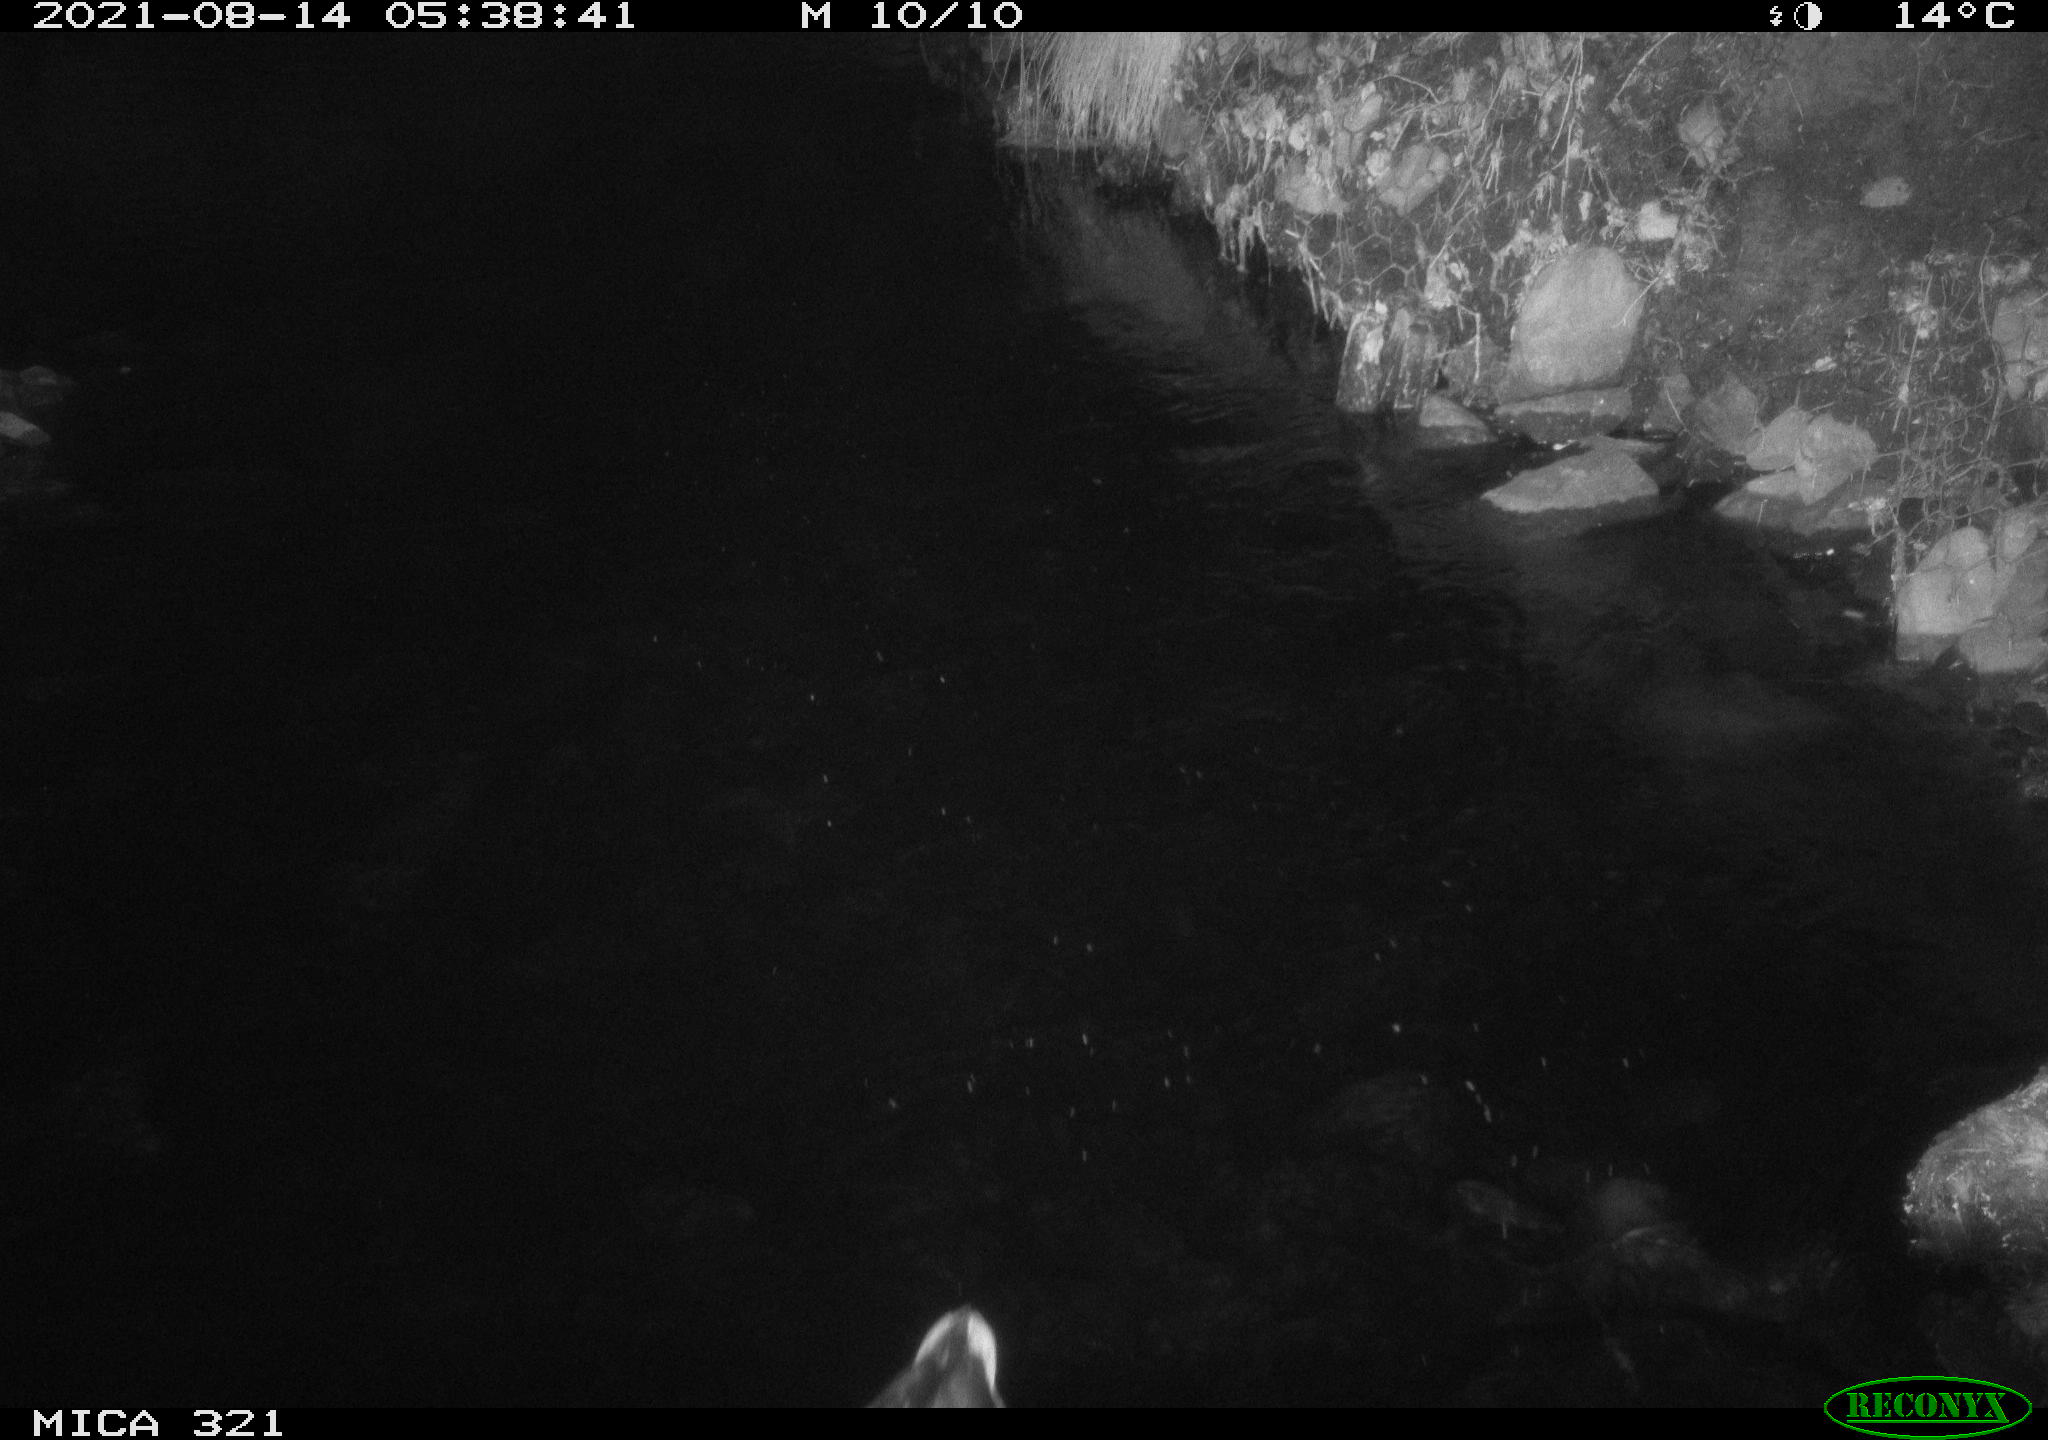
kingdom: Animalia
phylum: Chordata
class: Aves
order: Anseriformes
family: Anatidae
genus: Anas
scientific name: Anas platyrhynchos
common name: Mallard
